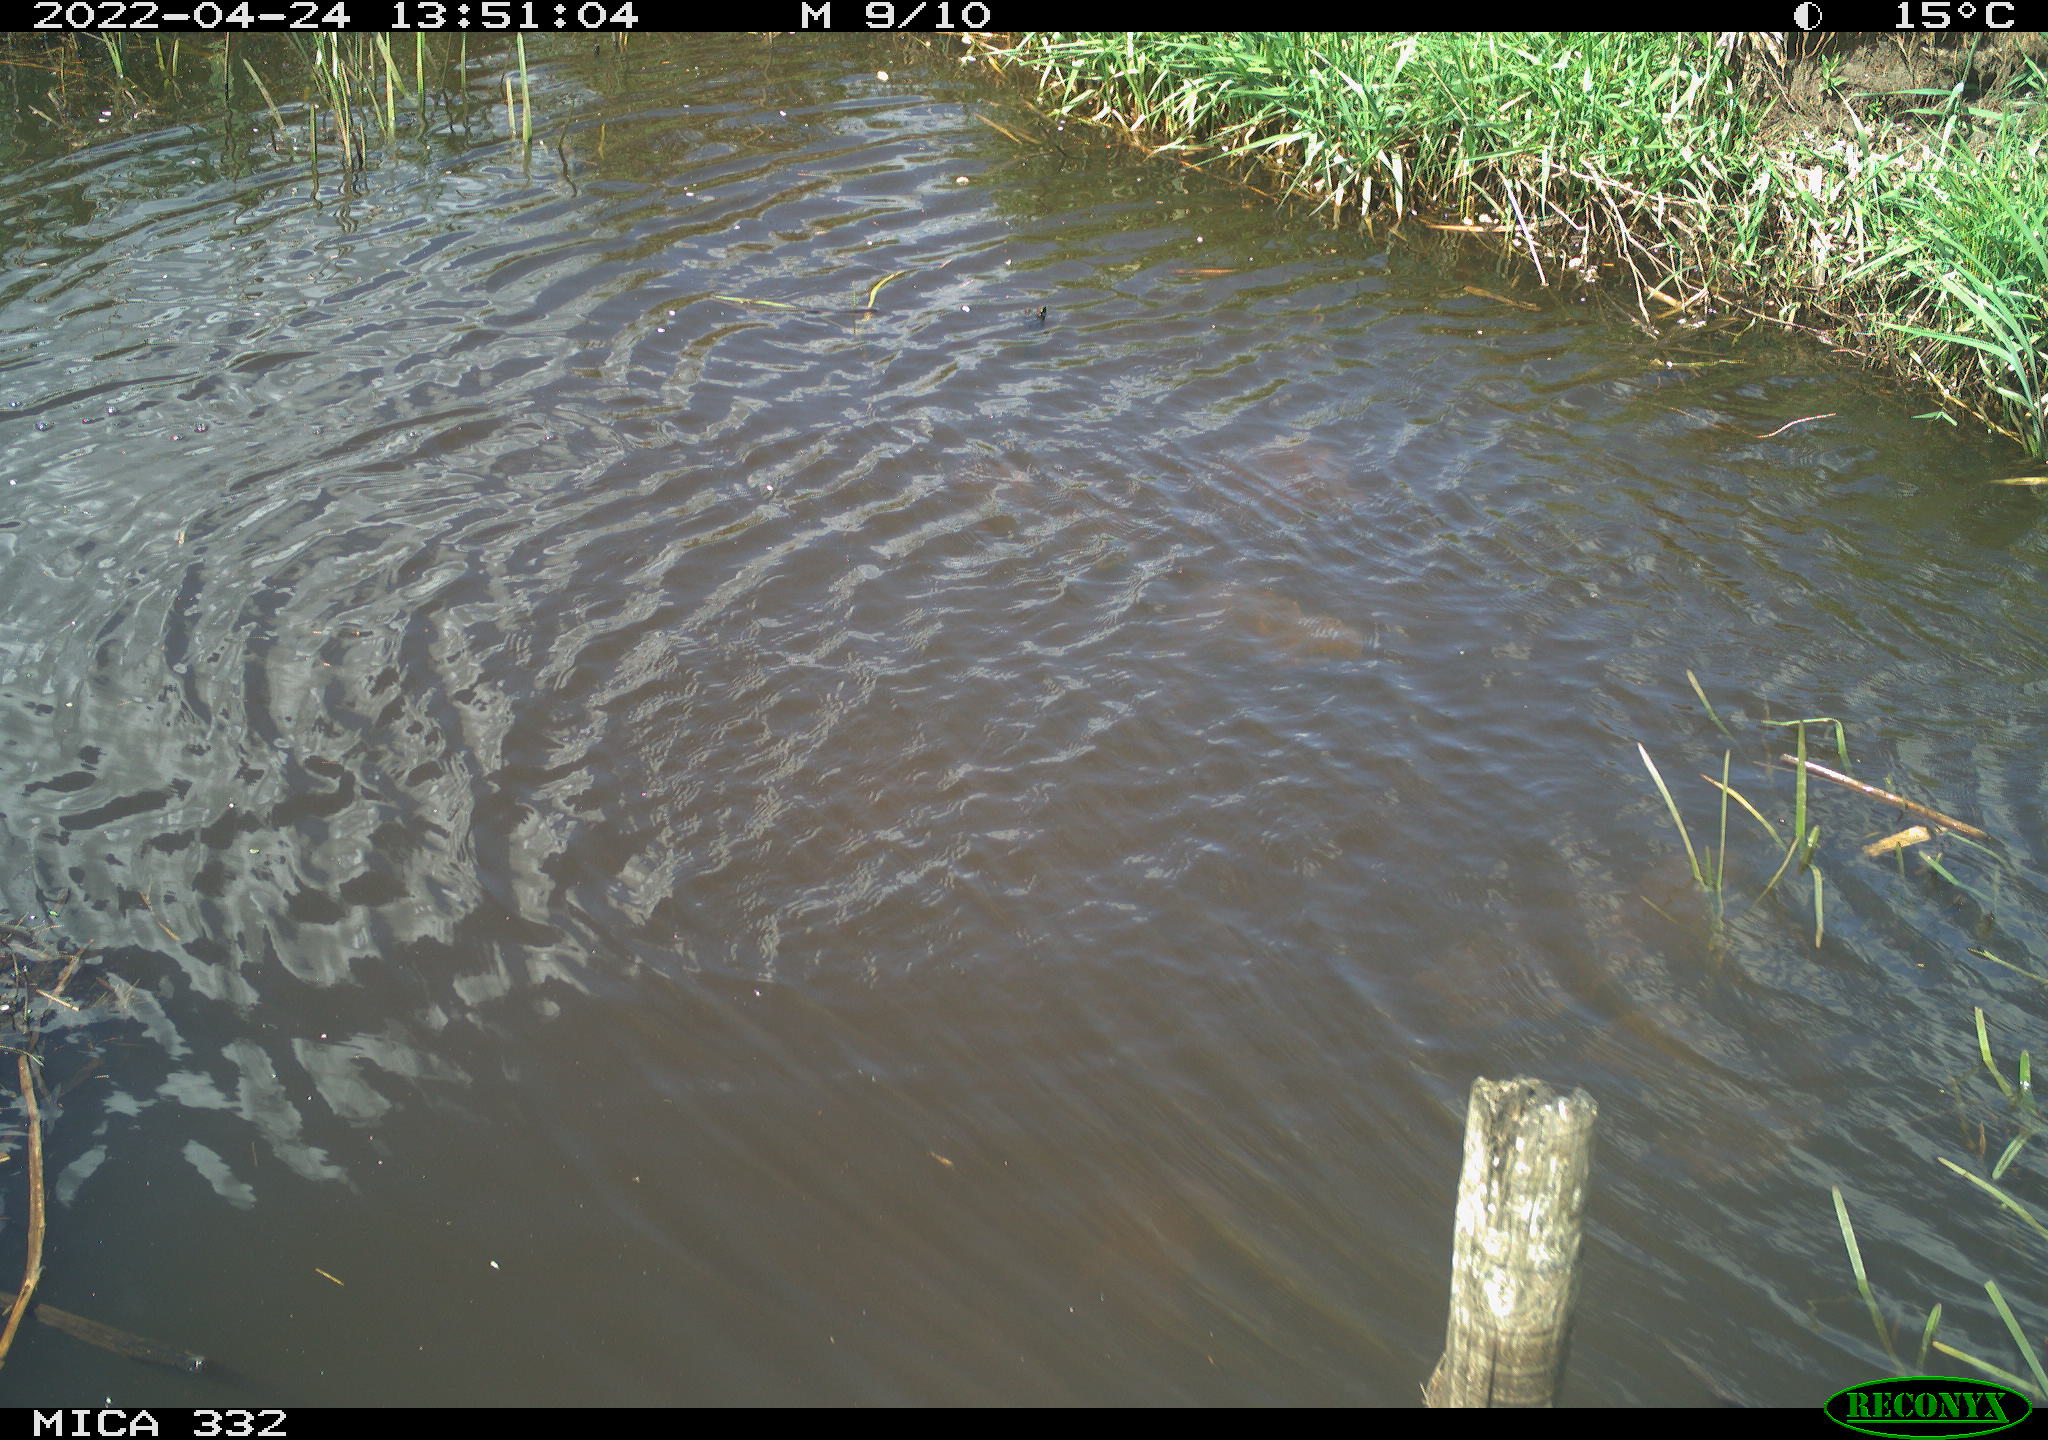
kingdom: Animalia
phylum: Chordata
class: Aves
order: Anseriformes
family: Anatidae
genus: Anas
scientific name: Anas platyrhynchos
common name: Mallard
